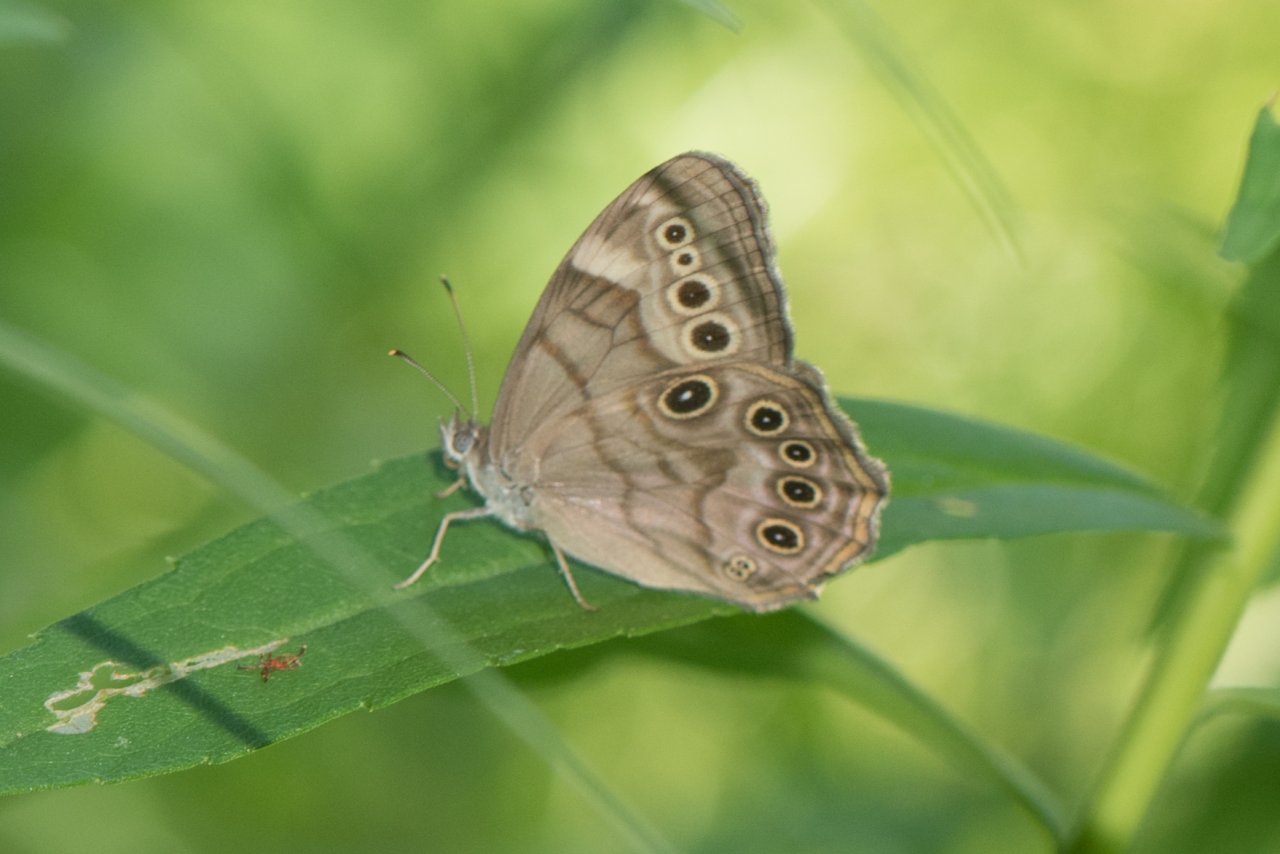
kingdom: Animalia
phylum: Arthropoda
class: Insecta
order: Lepidoptera
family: Nymphalidae
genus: Lethe
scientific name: Lethe anthedon
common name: Northern Pearly-Eye
